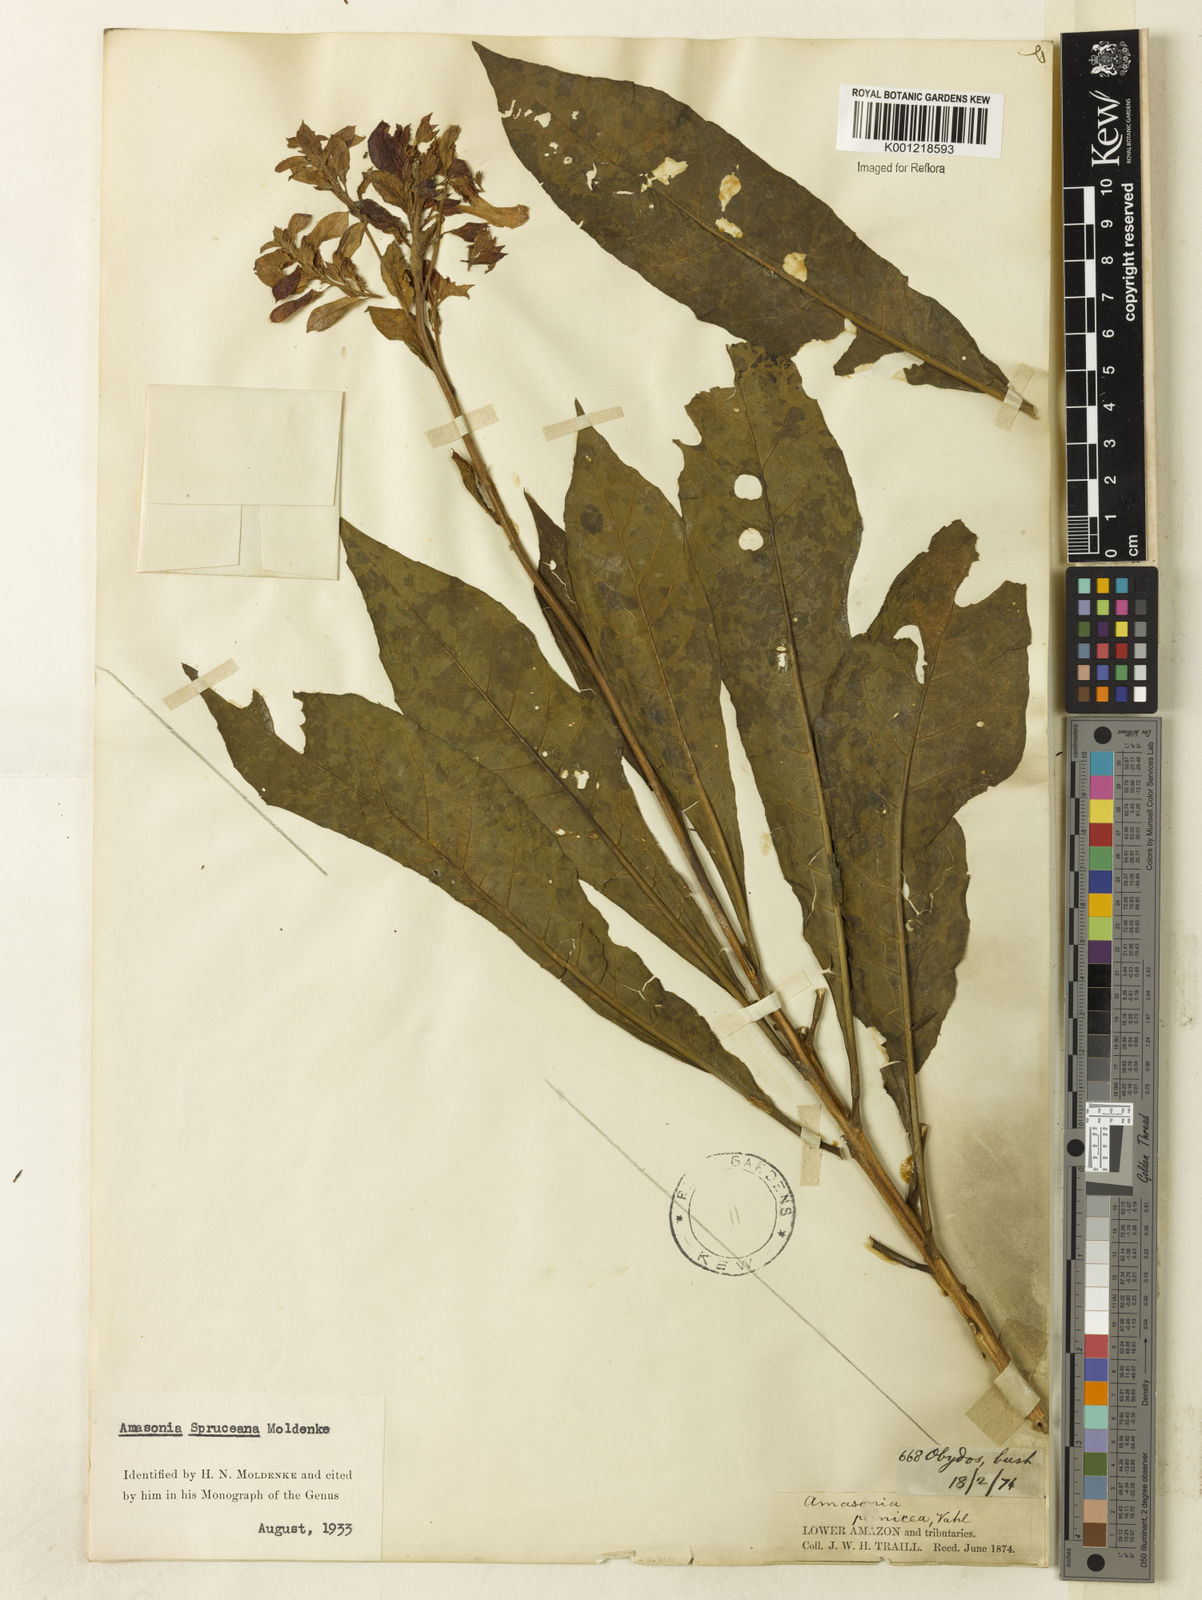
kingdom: Plantae
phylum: Tracheophyta
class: Magnoliopsida
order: Lamiales
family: Lamiaceae
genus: Amasonia
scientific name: Amasonia campestris
